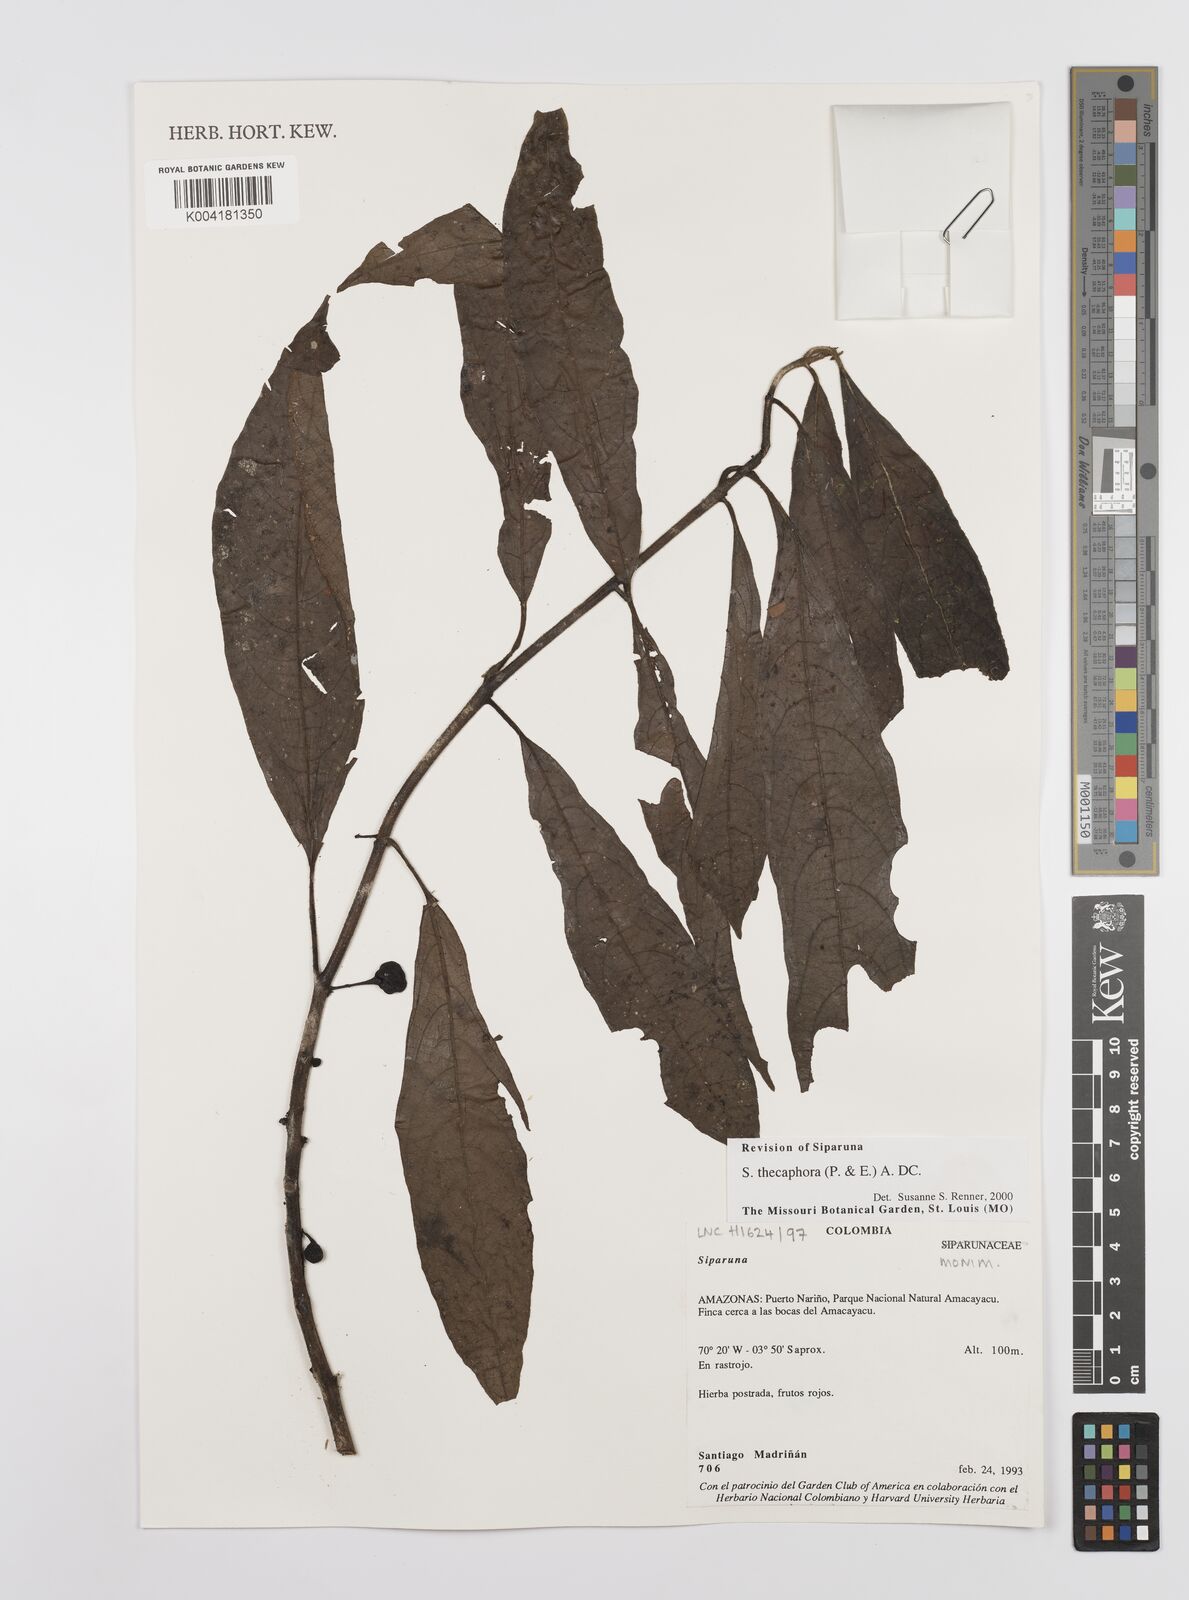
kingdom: Plantae
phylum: Tracheophyta
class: Magnoliopsida
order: Laurales
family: Siparunaceae
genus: Siparuna
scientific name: Siparuna thecaphora
